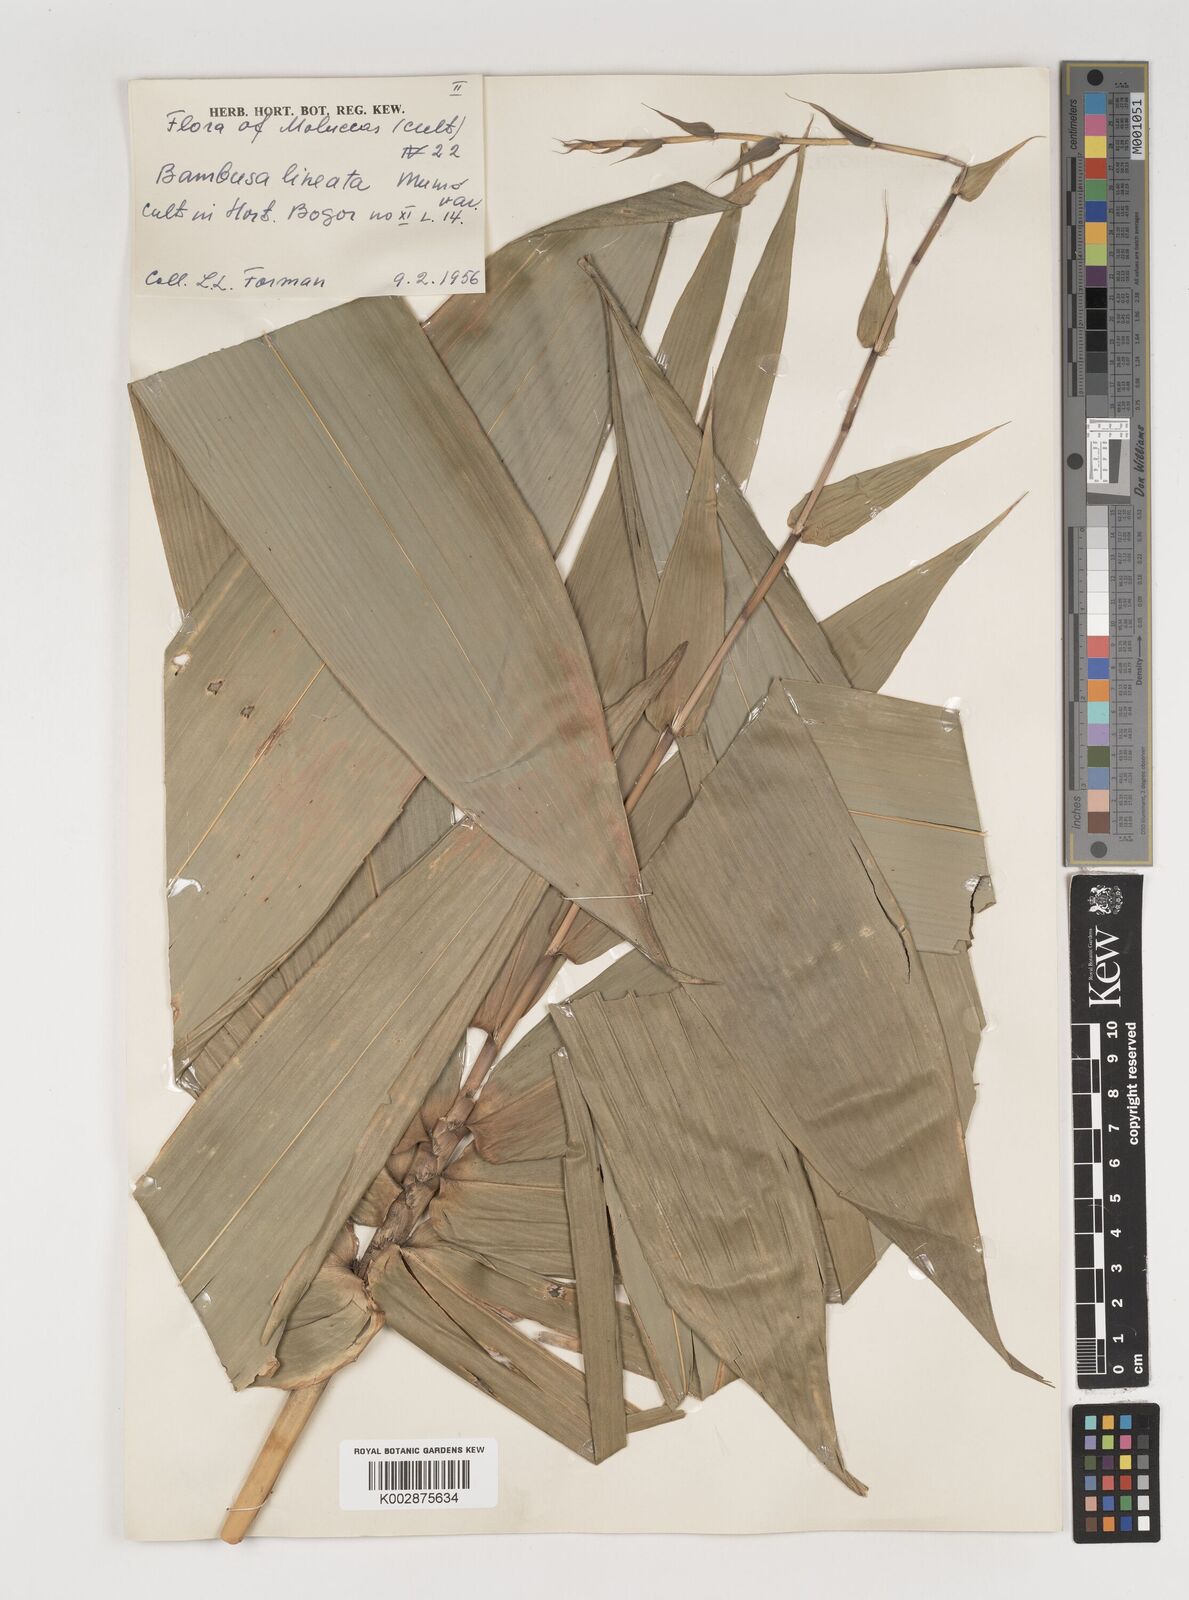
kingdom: Plantae
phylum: Tracheophyta
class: Liliopsida
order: Poales
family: Poaceae
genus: Neololeba
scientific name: Neololeba atra
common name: Cape bamboo
